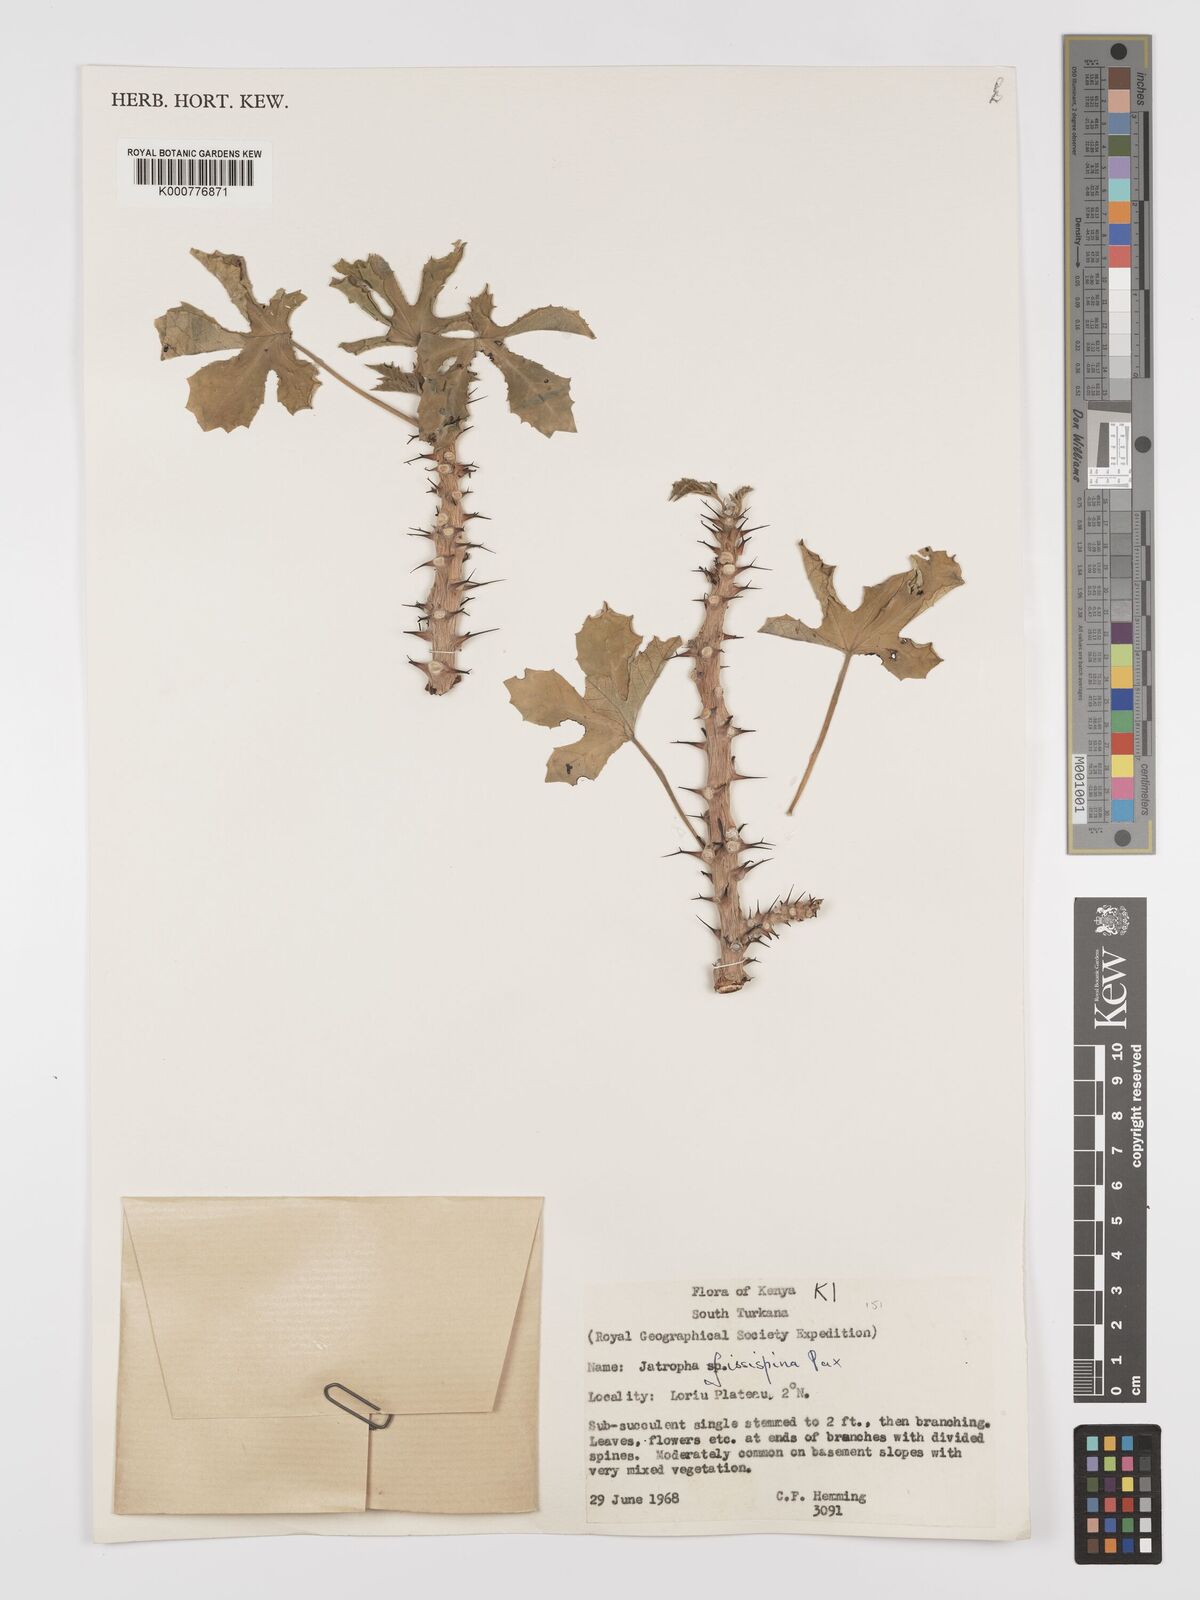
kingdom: Plantae
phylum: Tracheophyta
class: Magnoliopsida
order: Malpighiales
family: Euphorbiaceae
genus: Jatropha
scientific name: Jatropha ellenbeckii
